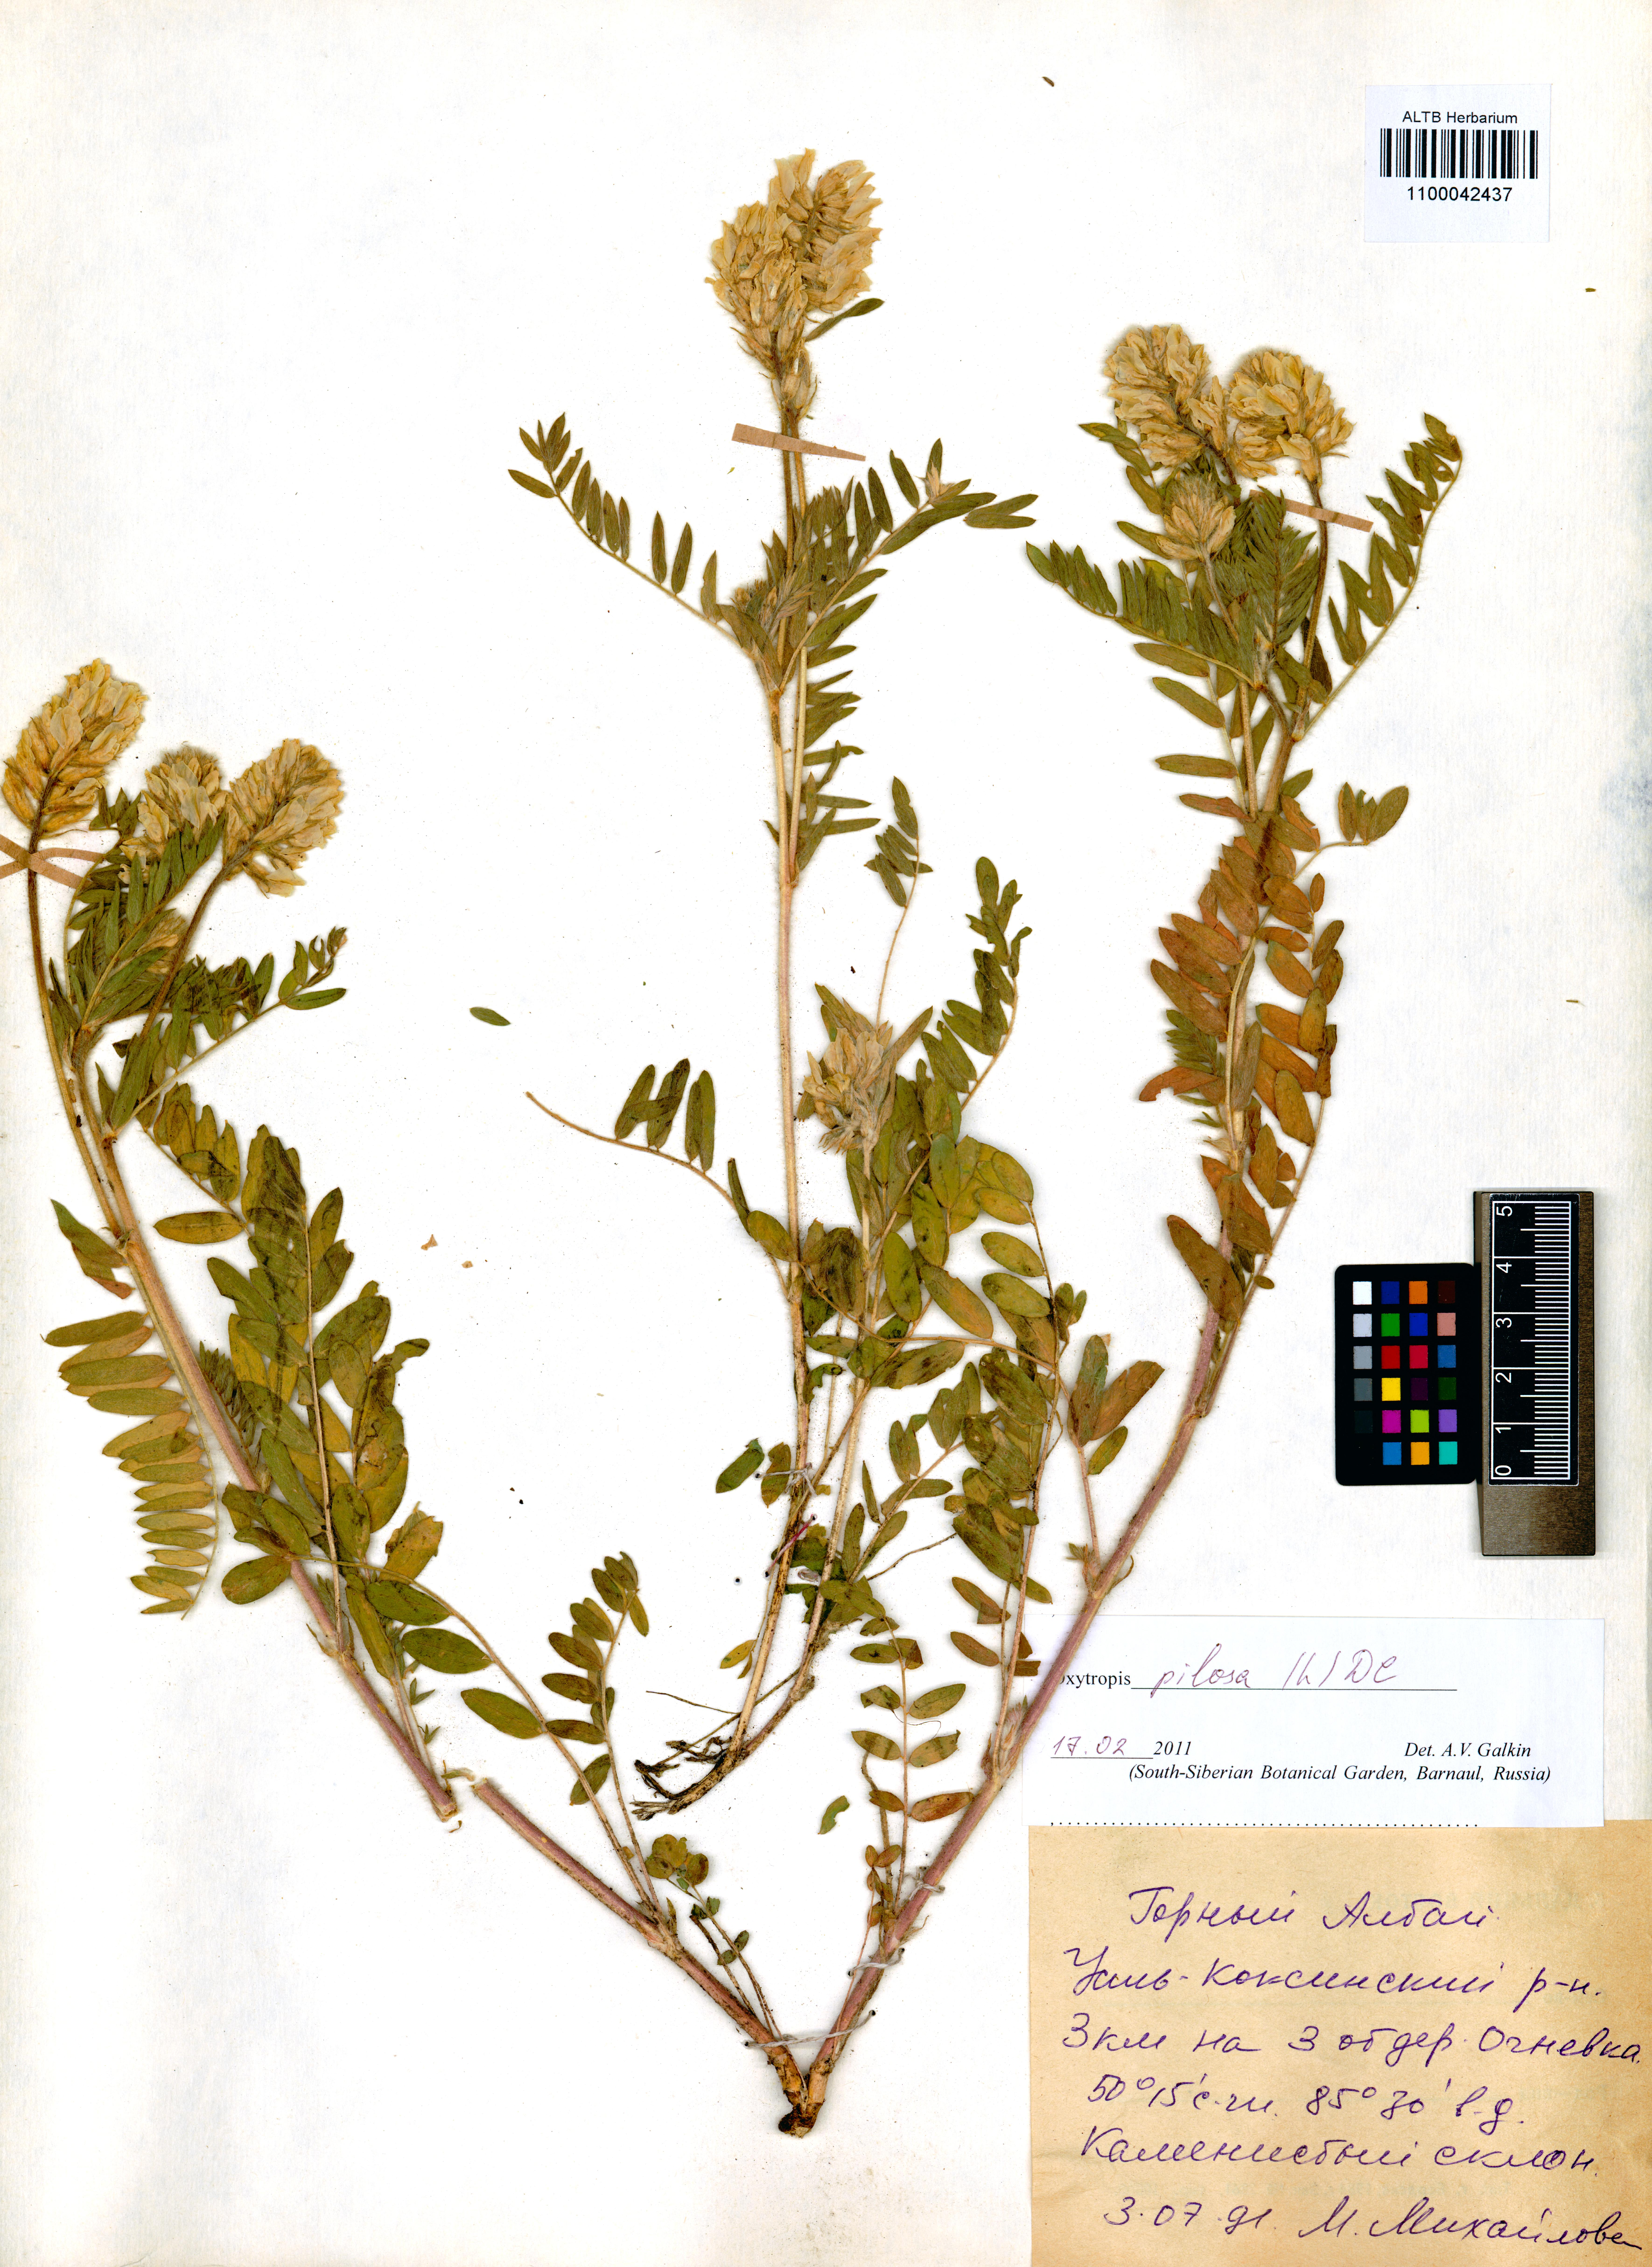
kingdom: Plantae
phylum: Tracheophyta
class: Magnoliopsida
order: Fabales
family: Fabaceae
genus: Oxytropis
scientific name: Oxytropis pilosa
